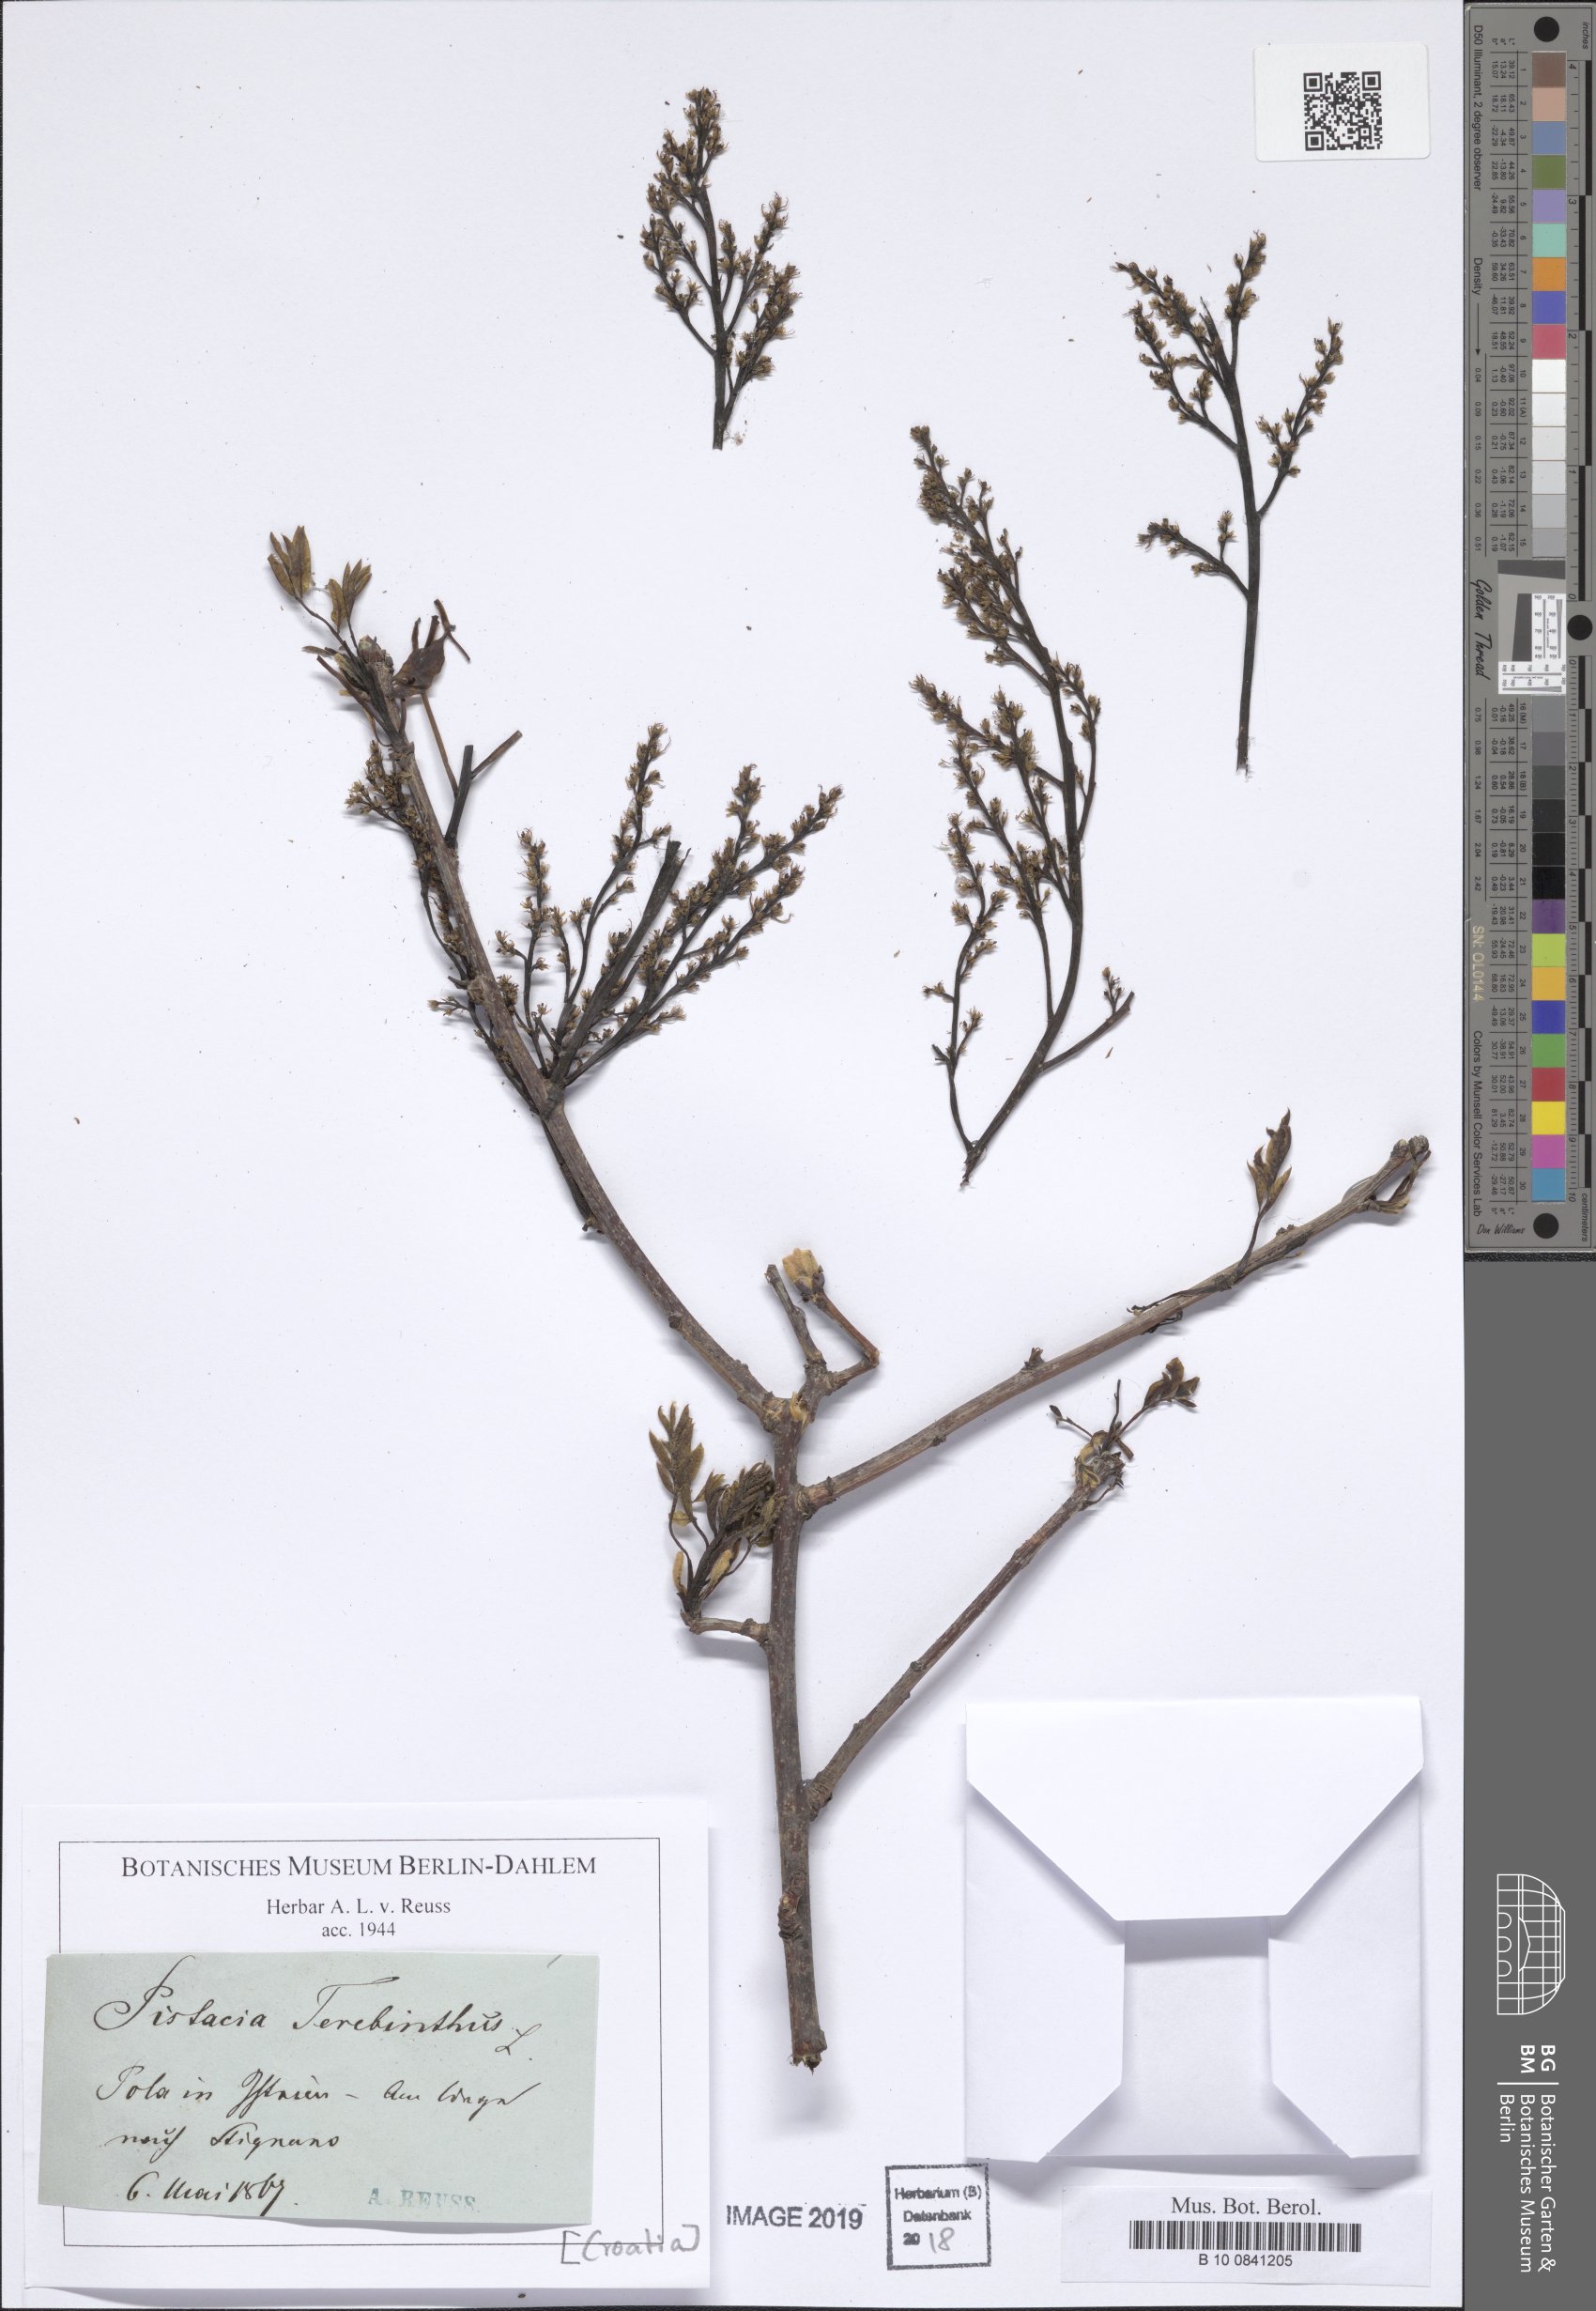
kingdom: Plantae
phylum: Tracheophyta
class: Magnoliopsida
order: Sapindales
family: Anacardiaceae
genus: Pistacia
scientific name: Pistacia terebinthus
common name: Terebinth
